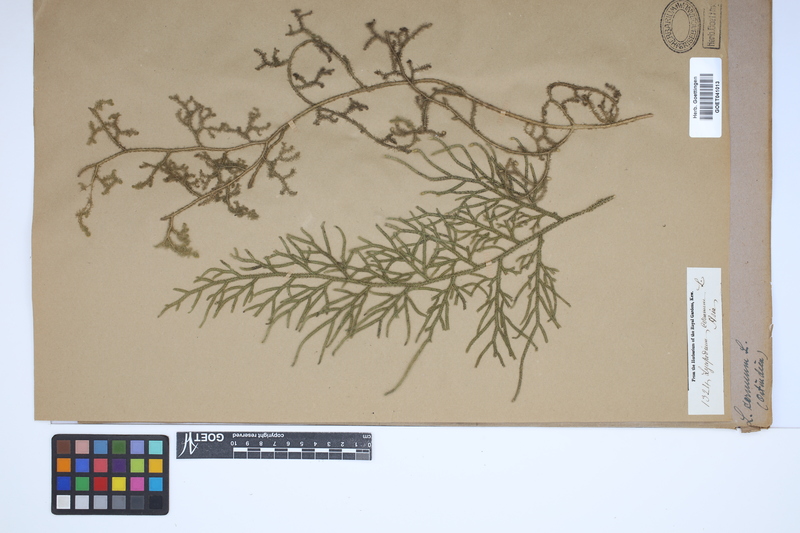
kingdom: Plantae
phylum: Tracheophyta
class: Lycopodiopsida
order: Lycopodiales
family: Lycopodiaceae
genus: Palhinhaea
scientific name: Palhinhaea cernua
